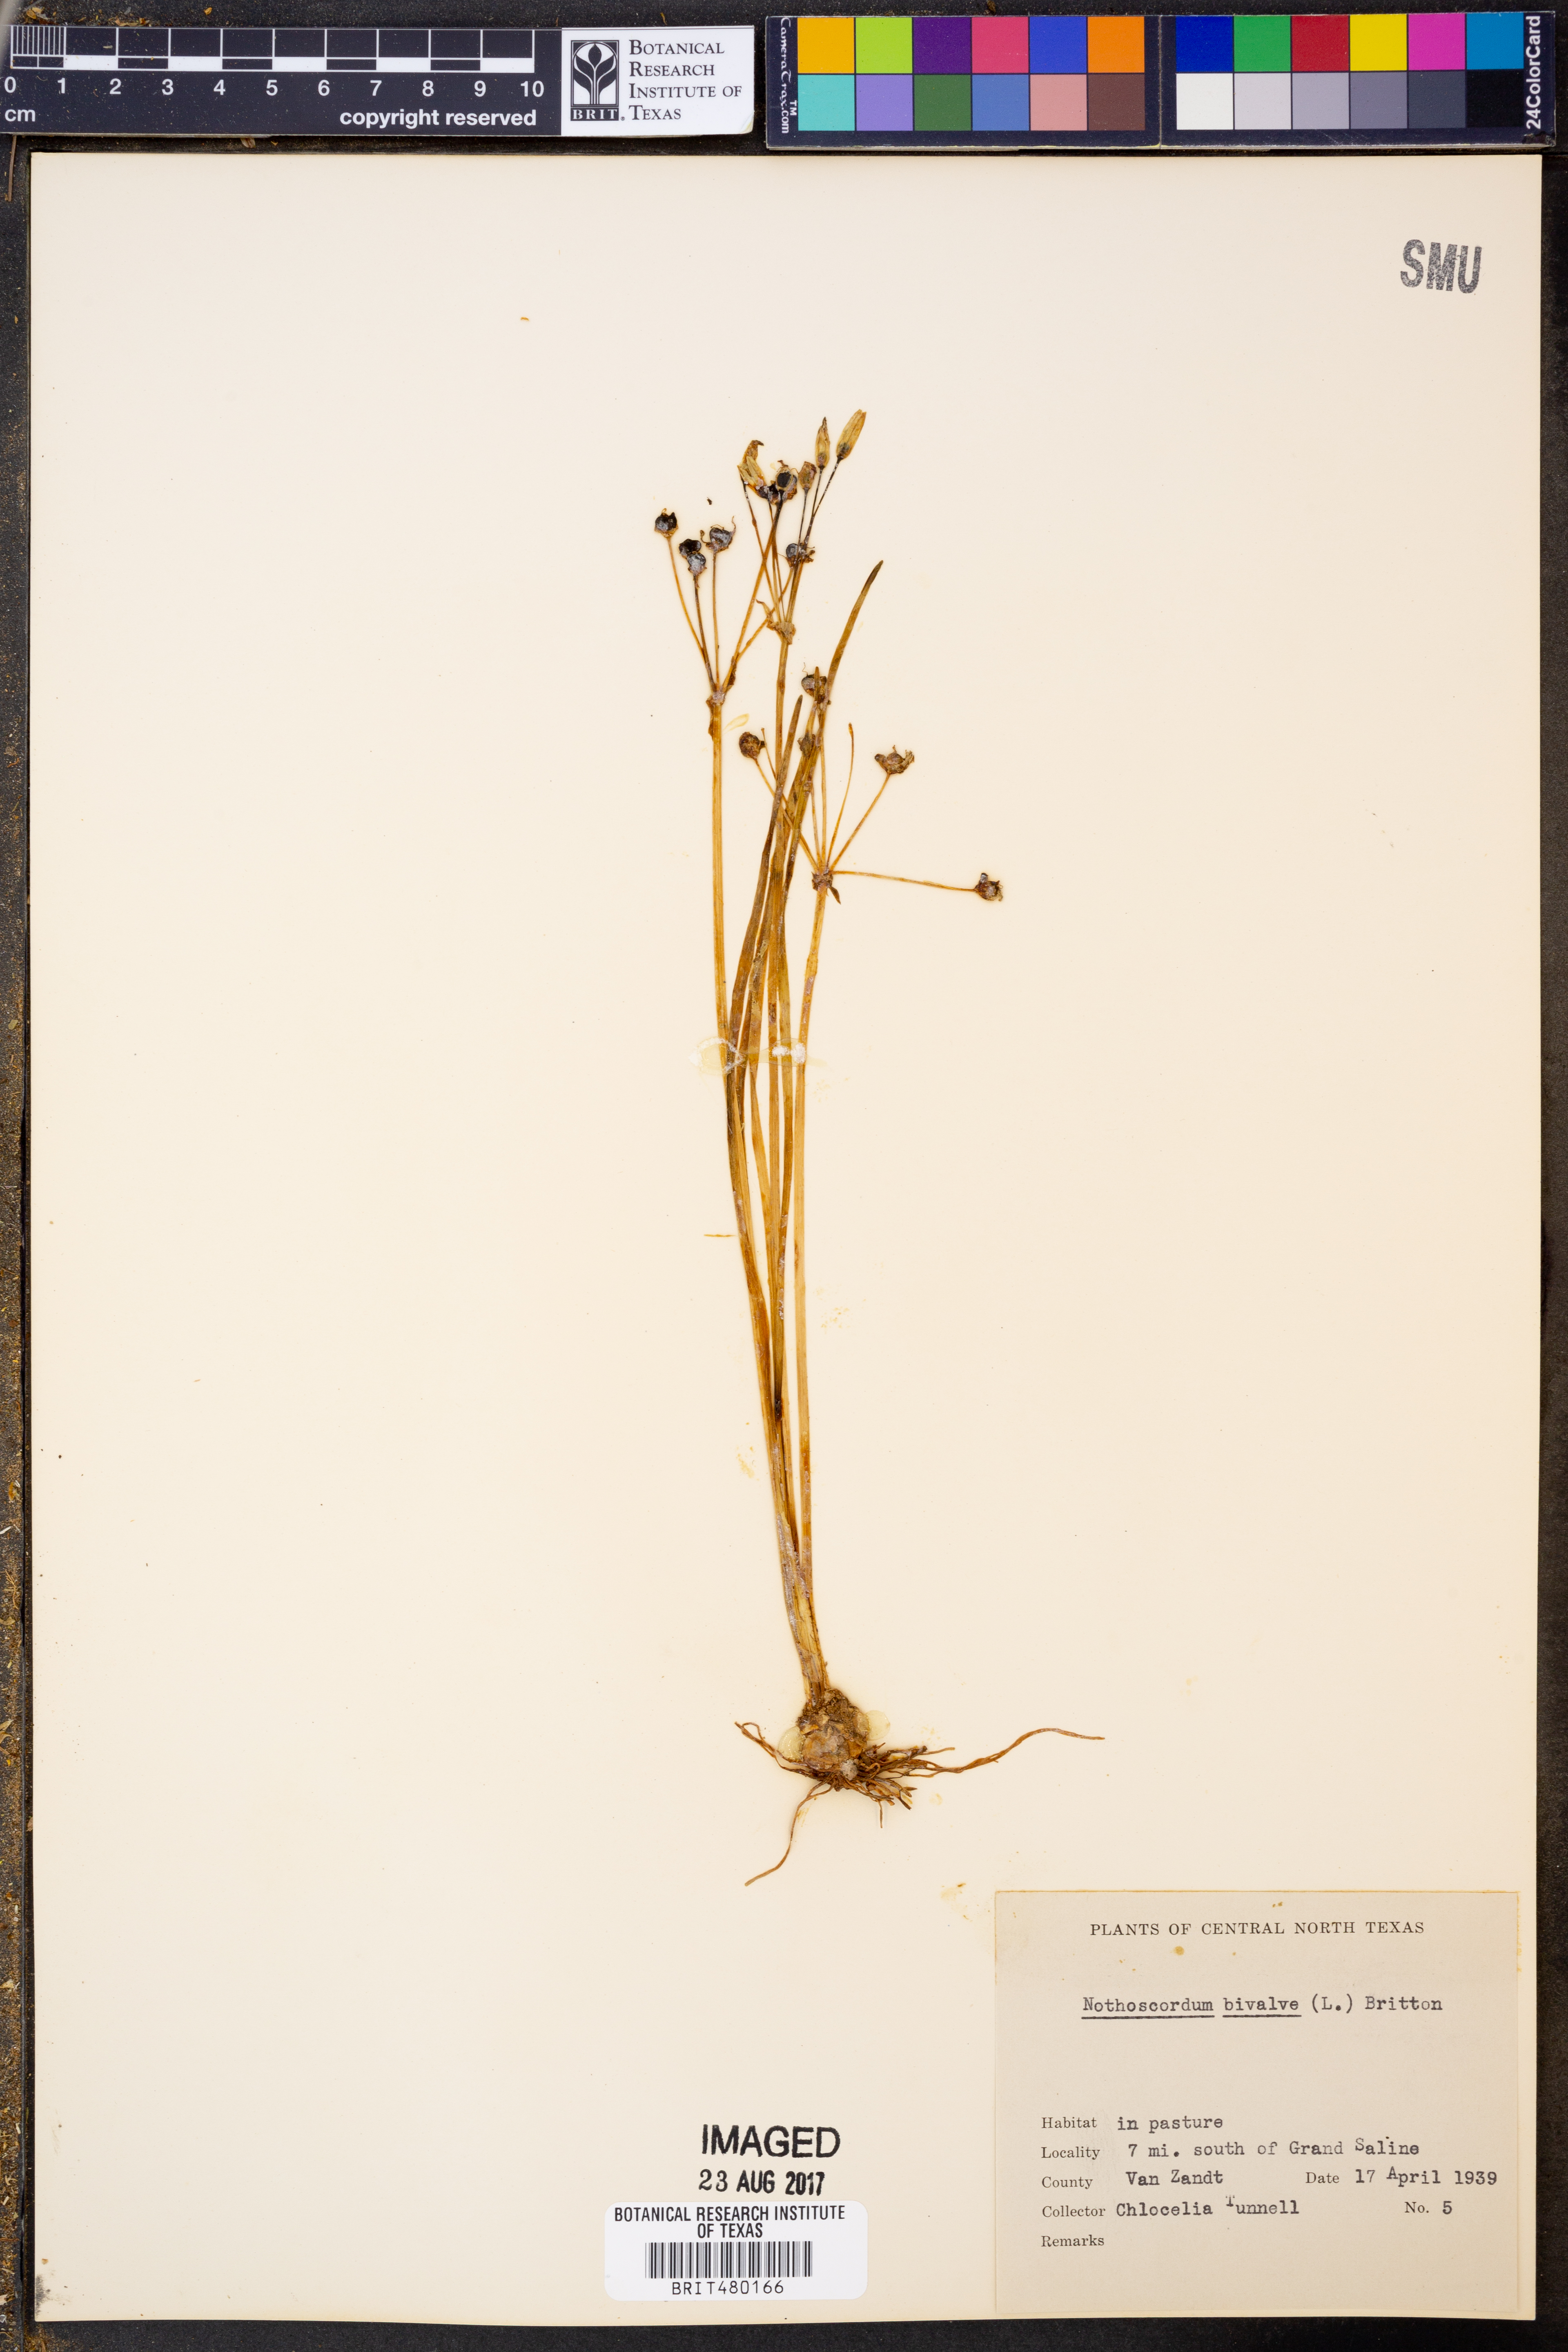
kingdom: Plantae
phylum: Tracheophyta
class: Liliopsida
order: Asparagales
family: Amaryllidaceae
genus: Nothoscordum
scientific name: Nothoscordum bivalve
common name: Crow-poison
